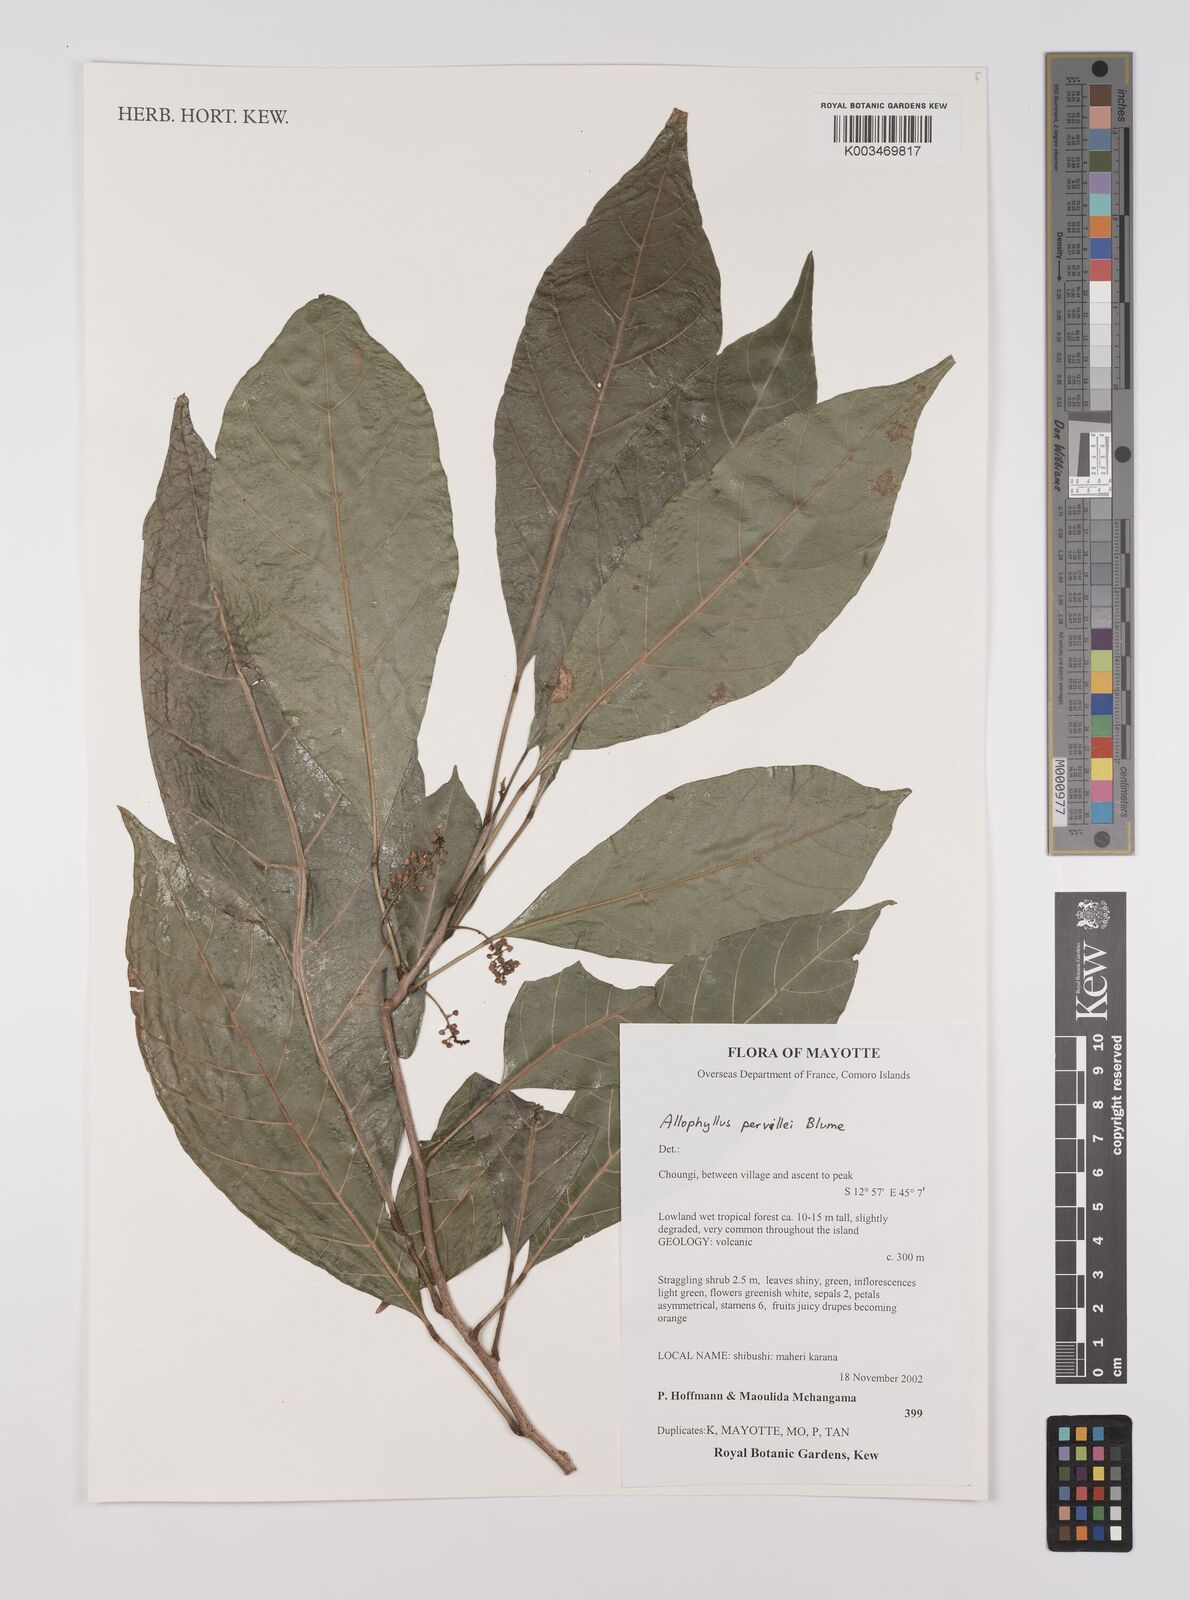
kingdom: Plantae
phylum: Tracheophyta
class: Magnoliopsida
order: Sapindales
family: Sapindaceae
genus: Allophylus
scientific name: Allophylus pervillei
